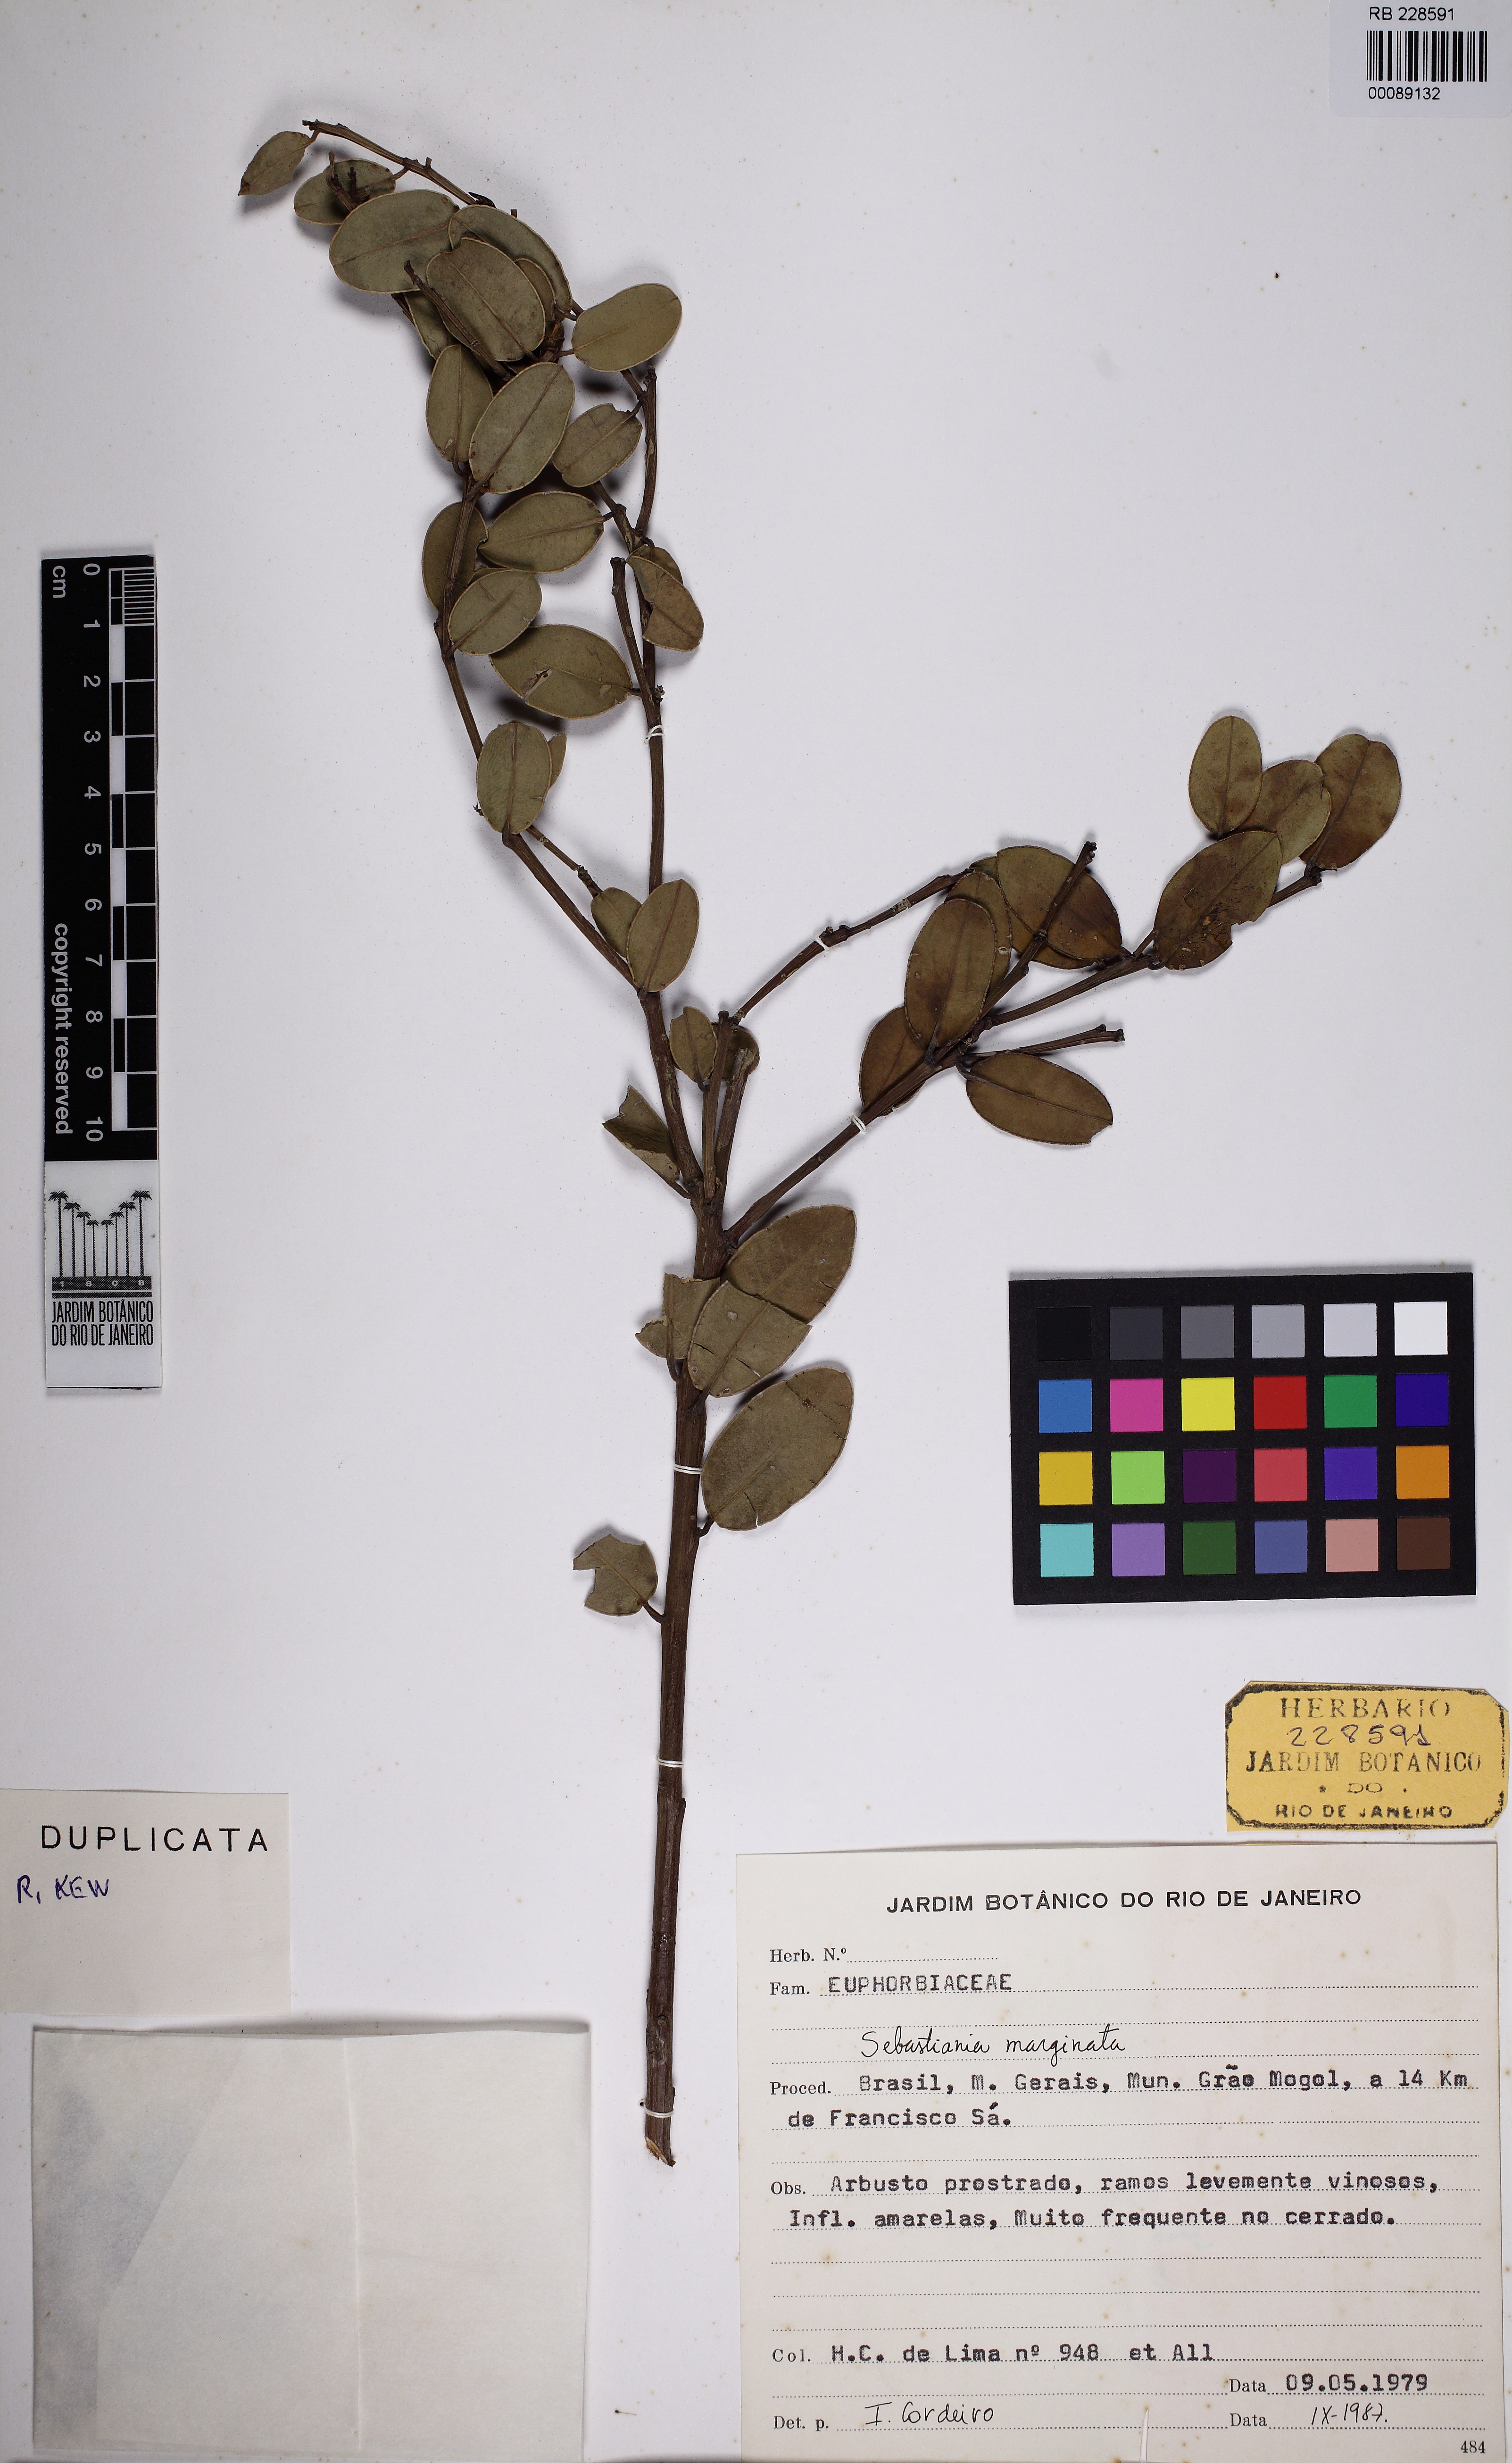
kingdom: Plantae
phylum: Tracheophyta
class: Magnoliopsida
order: Malpighiales
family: Euphorbiaceae
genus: Microstachys
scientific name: Microstachys marginata
